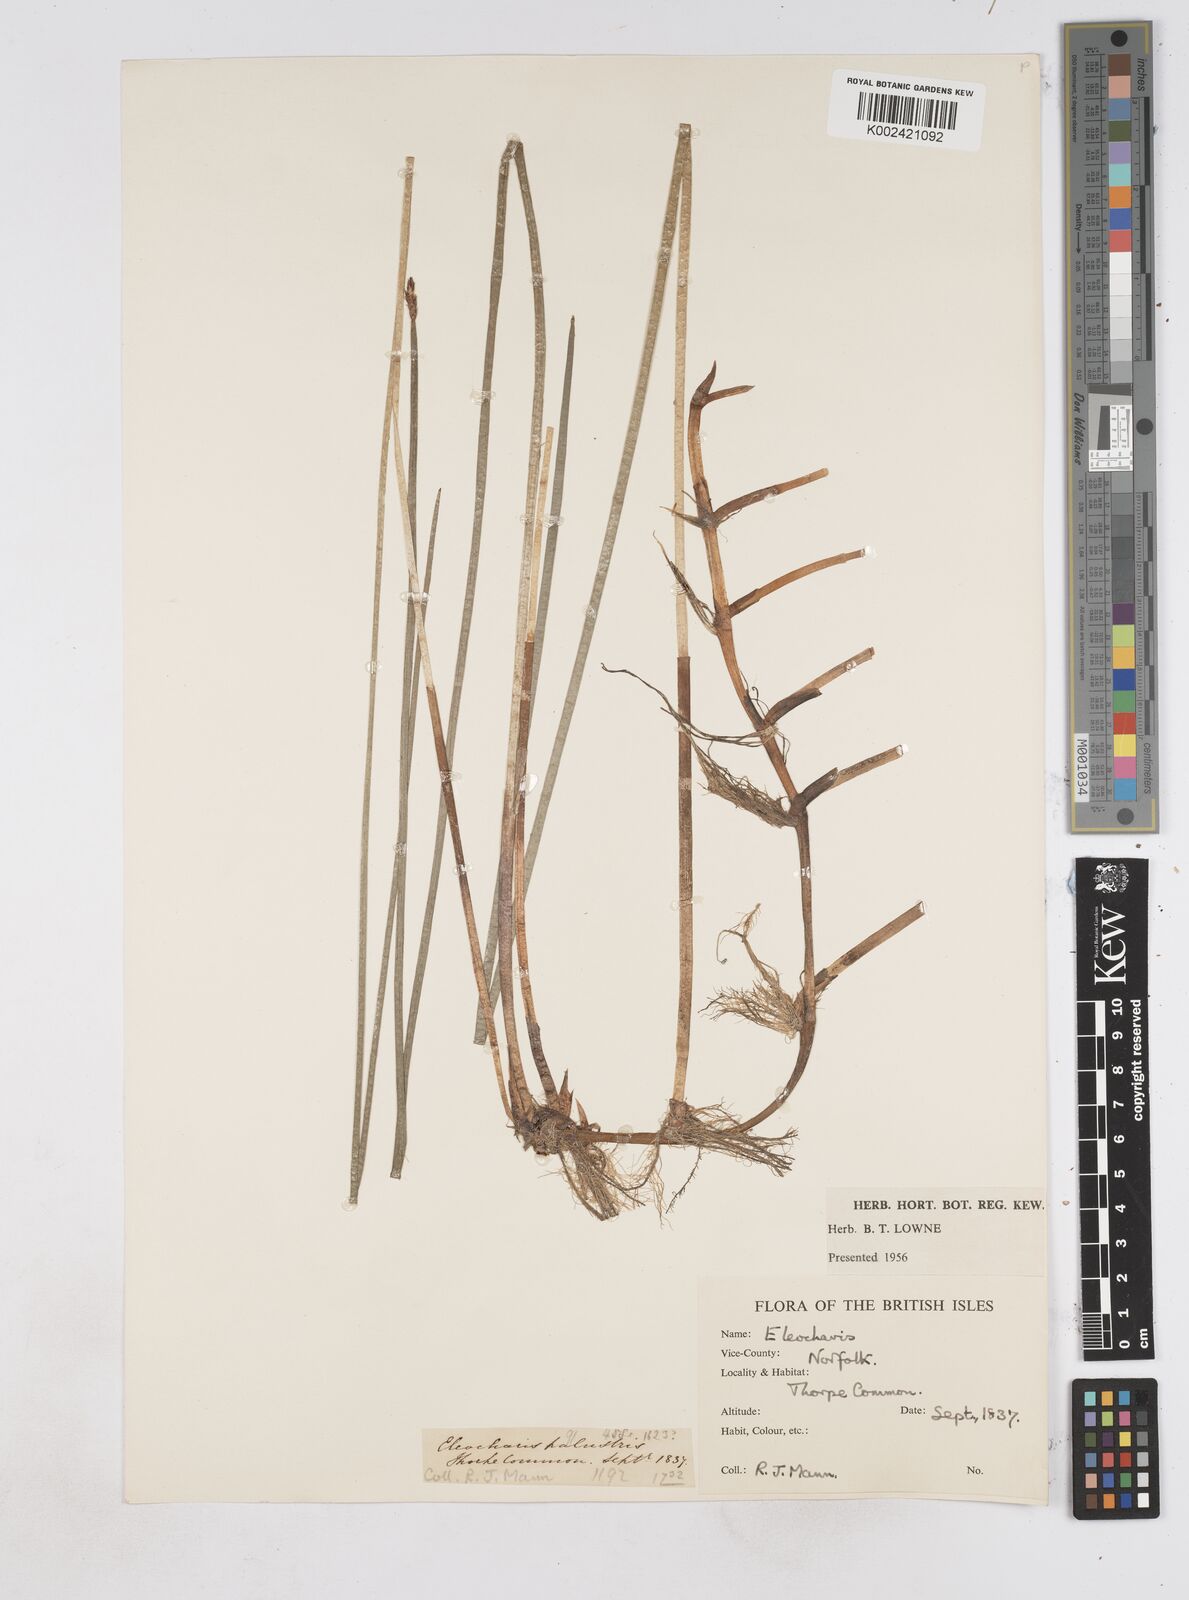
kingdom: Plantae
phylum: Tracheophyta
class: Liliopsida
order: Poales
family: Cyperaceae
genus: Eleocharis
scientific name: Eleocharis palustris
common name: Common spike-rush
